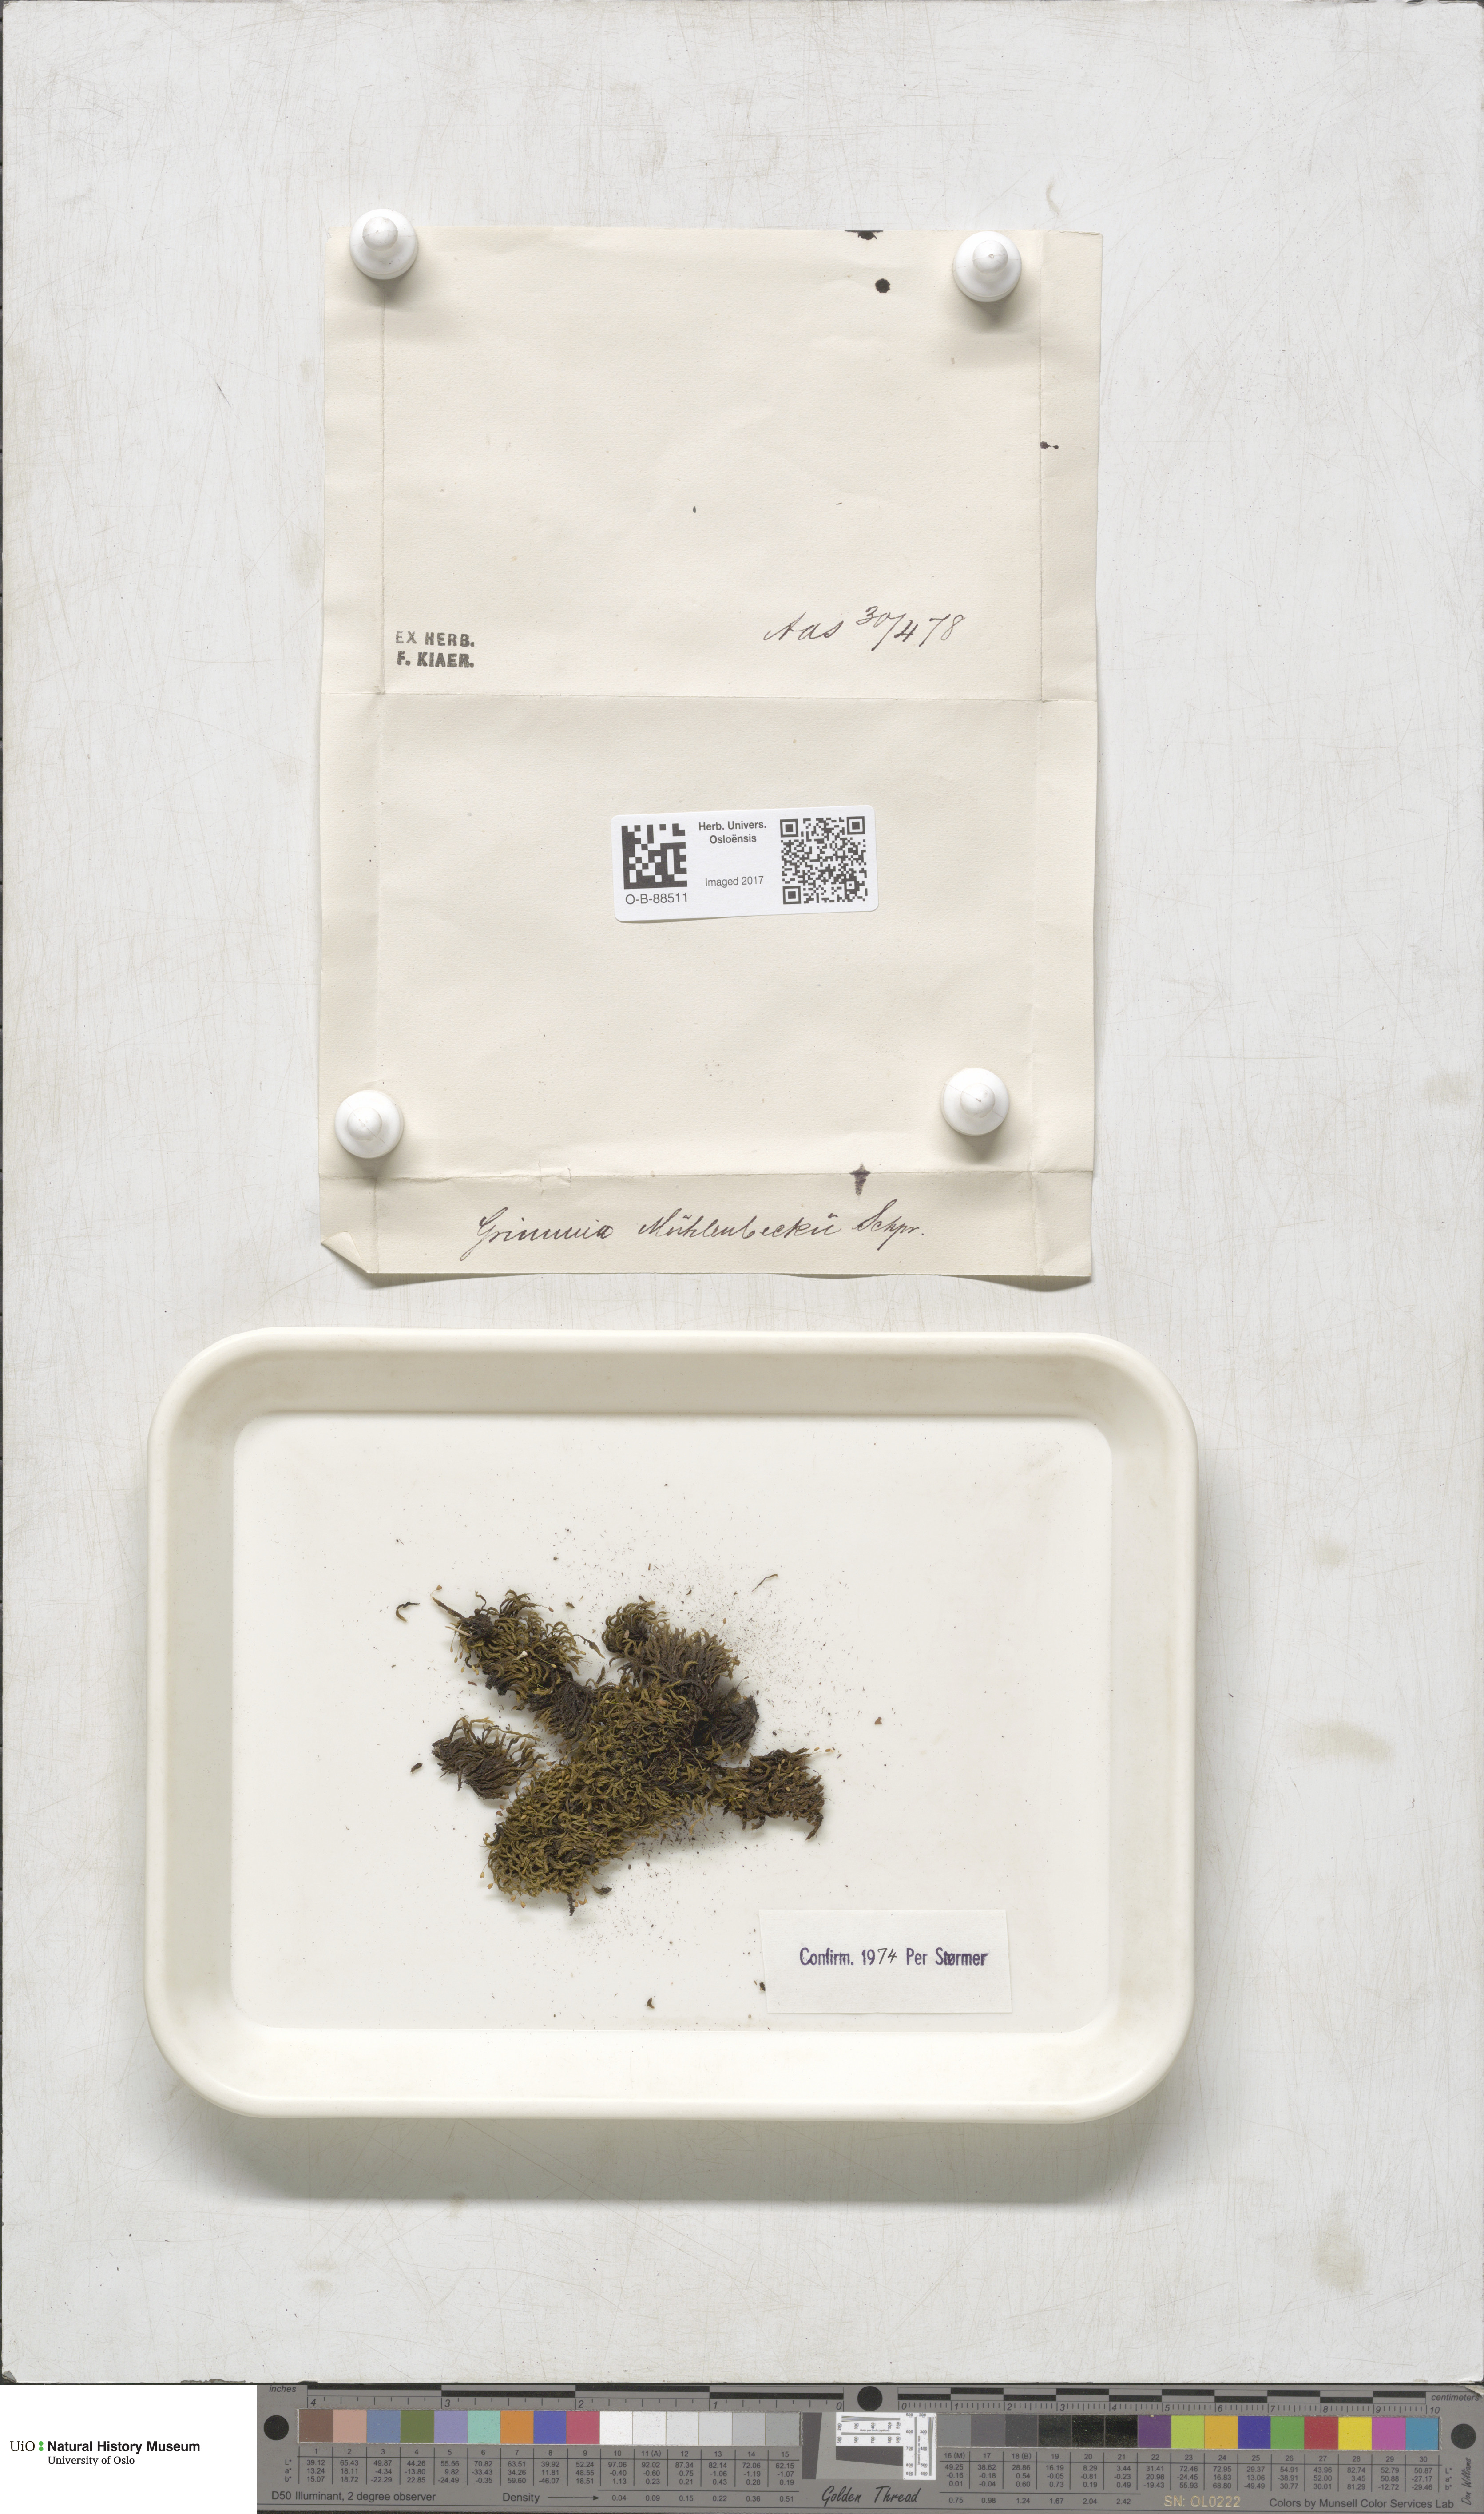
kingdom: Plantae
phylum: Bryophyta
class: Bryopsida
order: Grimmiales
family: Grimmiaceae
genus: Grimmia
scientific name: Grimmia trichophylla
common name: Hair-pointed grimmia
